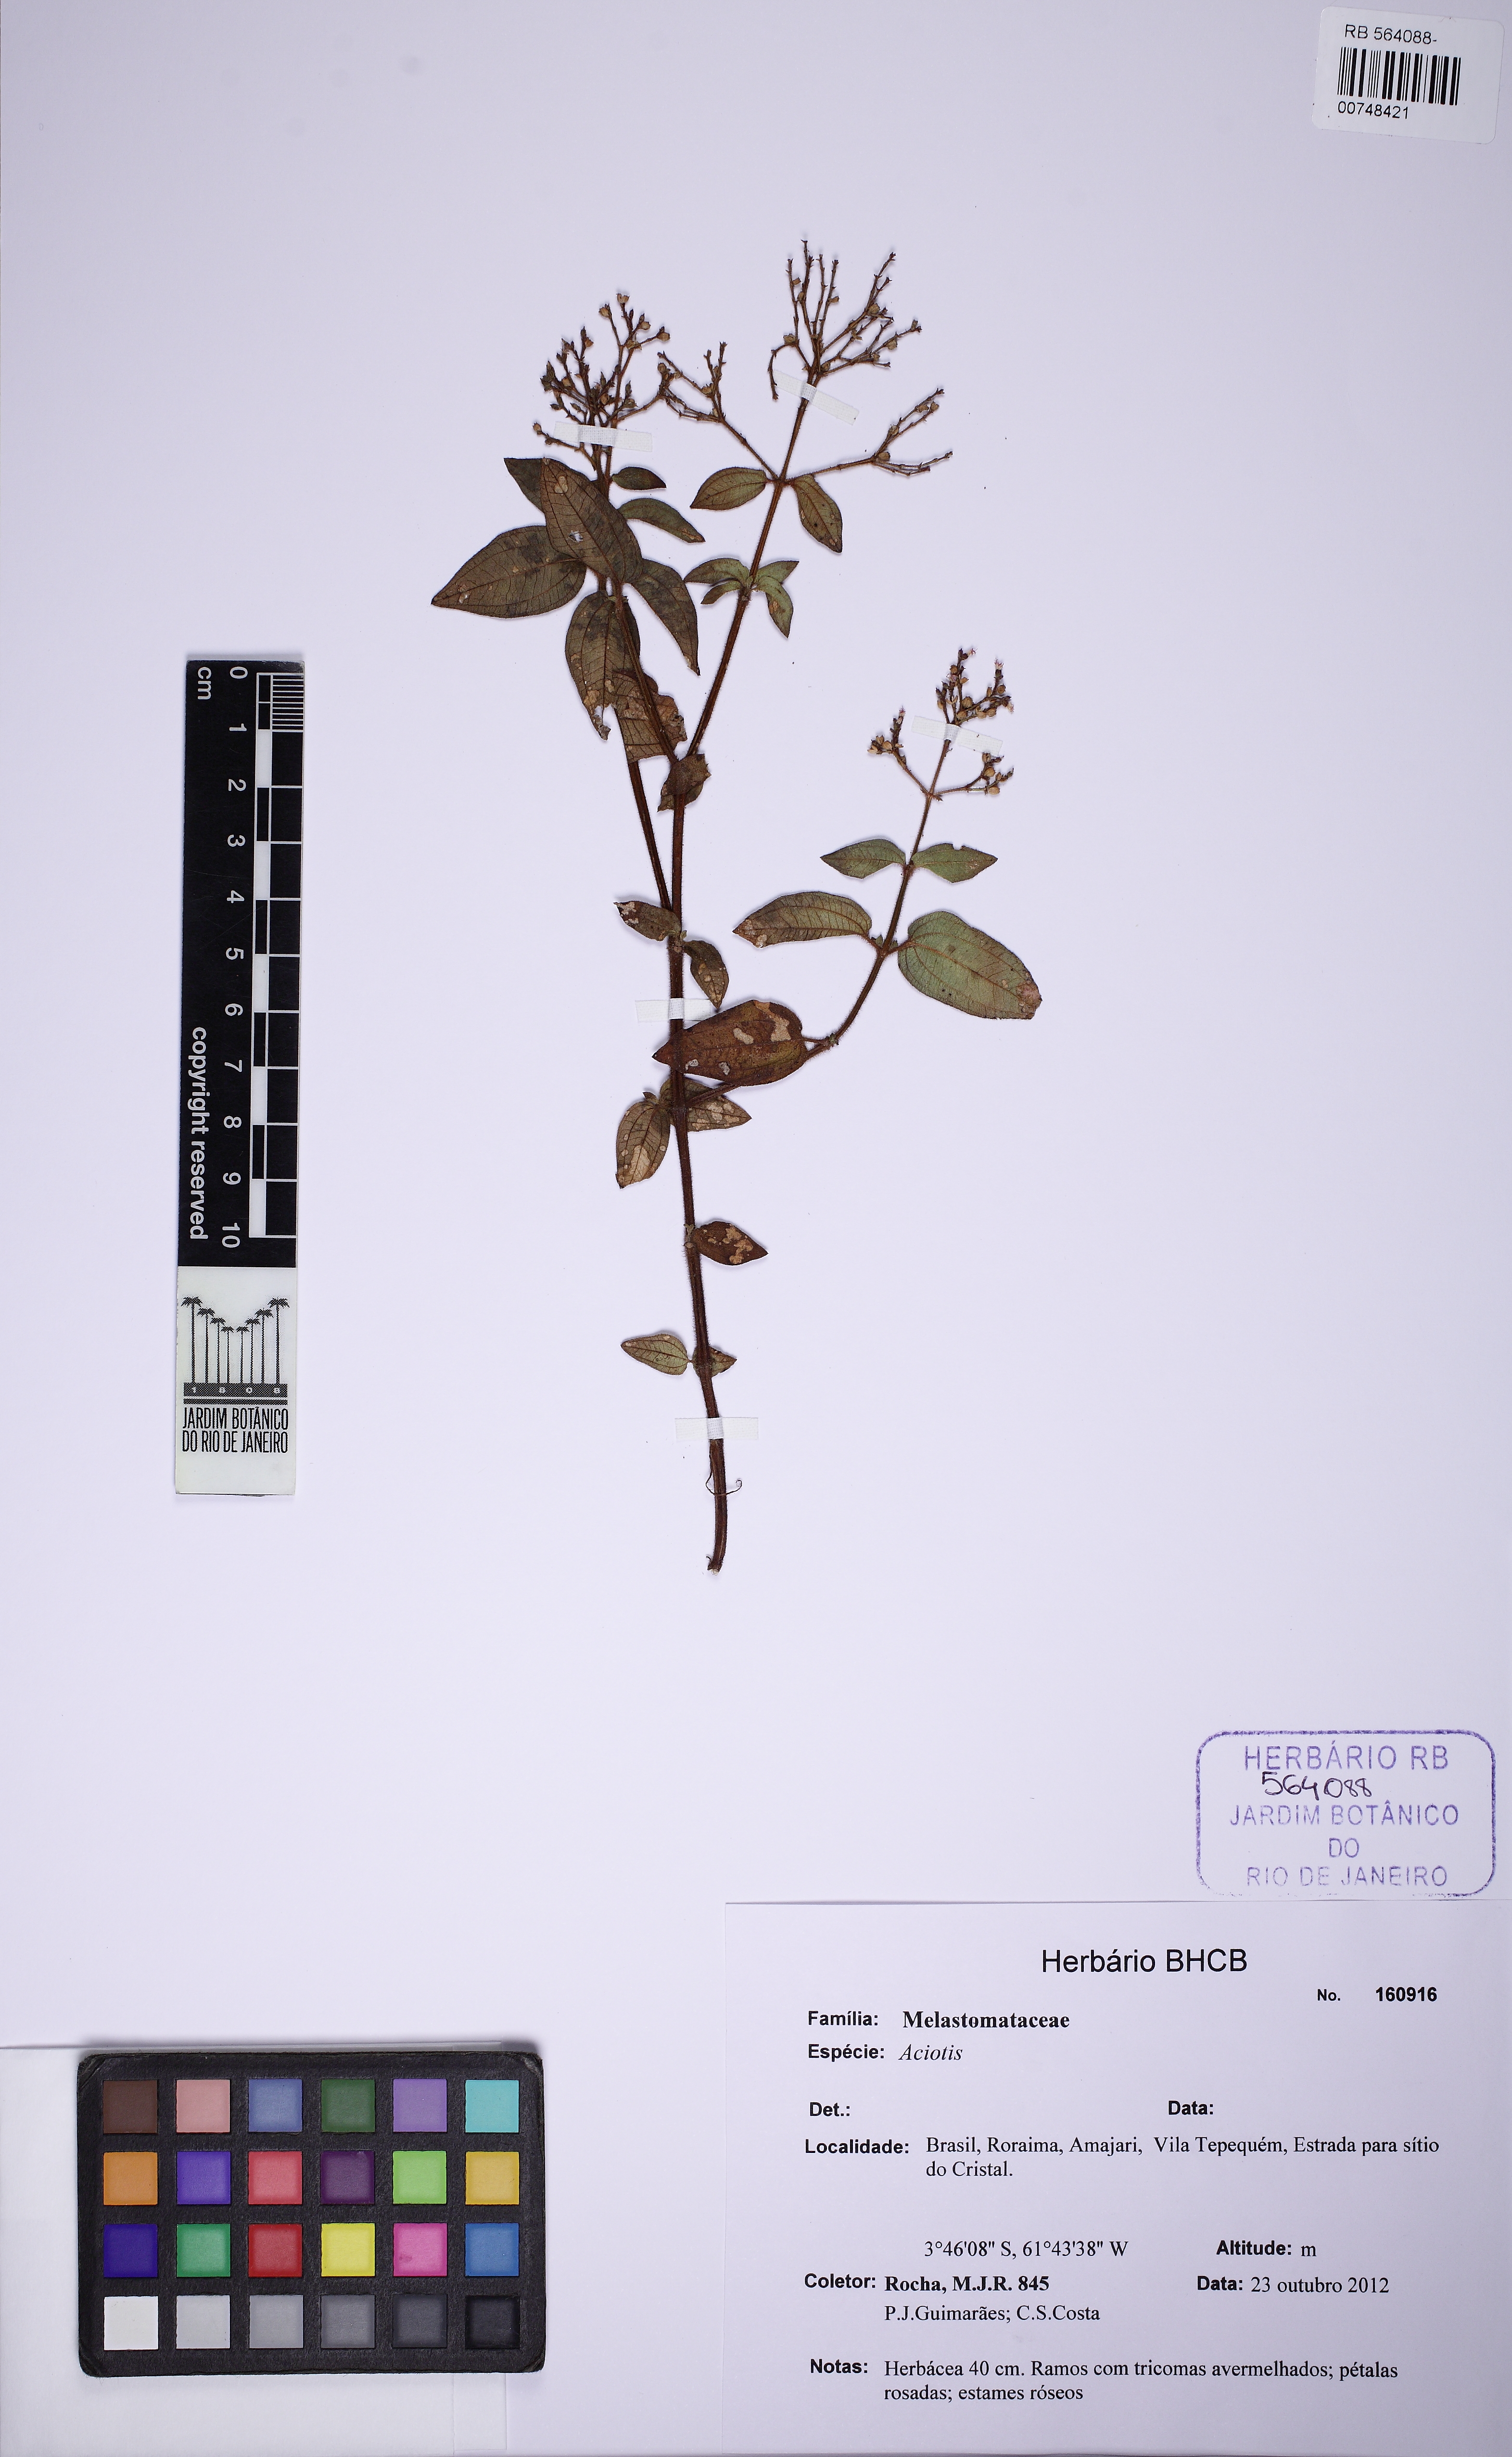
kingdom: Plantae
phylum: Tracheophyta
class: Magnoliopsida
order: Myrtales
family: Melastomataceae
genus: Aciotis
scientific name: Aciotis
